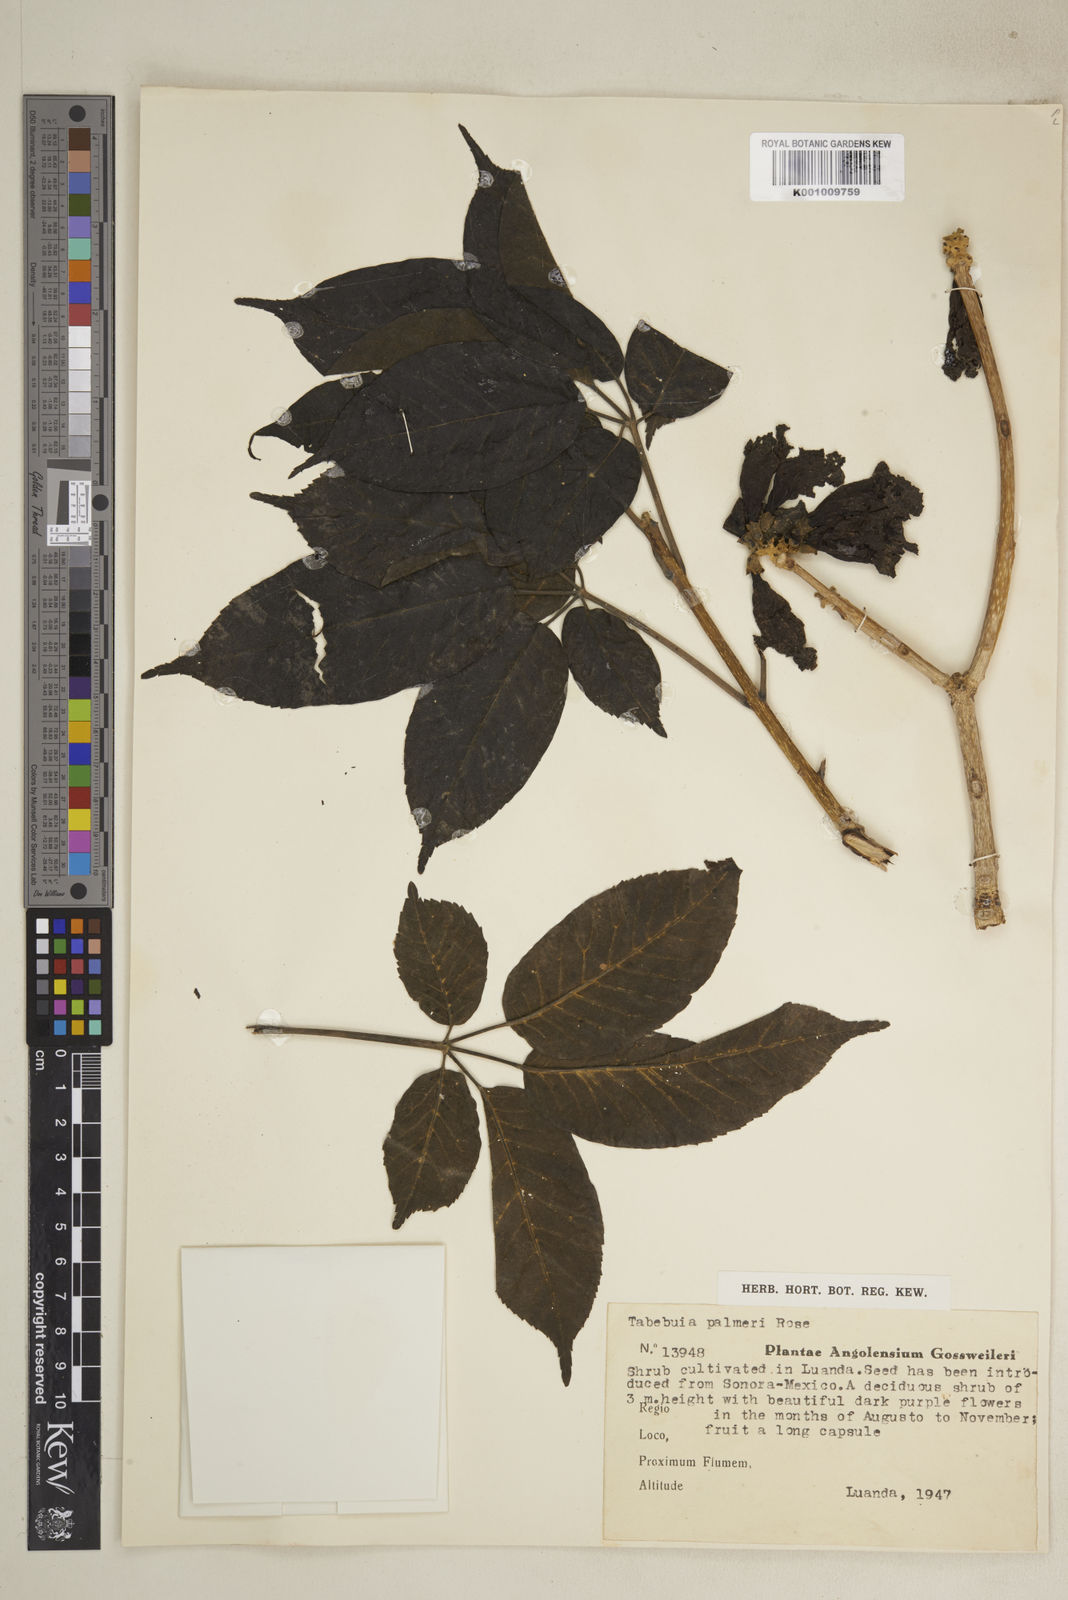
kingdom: Plantae
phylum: Tracheophyta
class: Magnoliopsida
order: Lamiales
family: Bignoniaceae
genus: Handroanthus
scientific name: Handroanthus impetiginosum
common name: Pink trumpet tree
